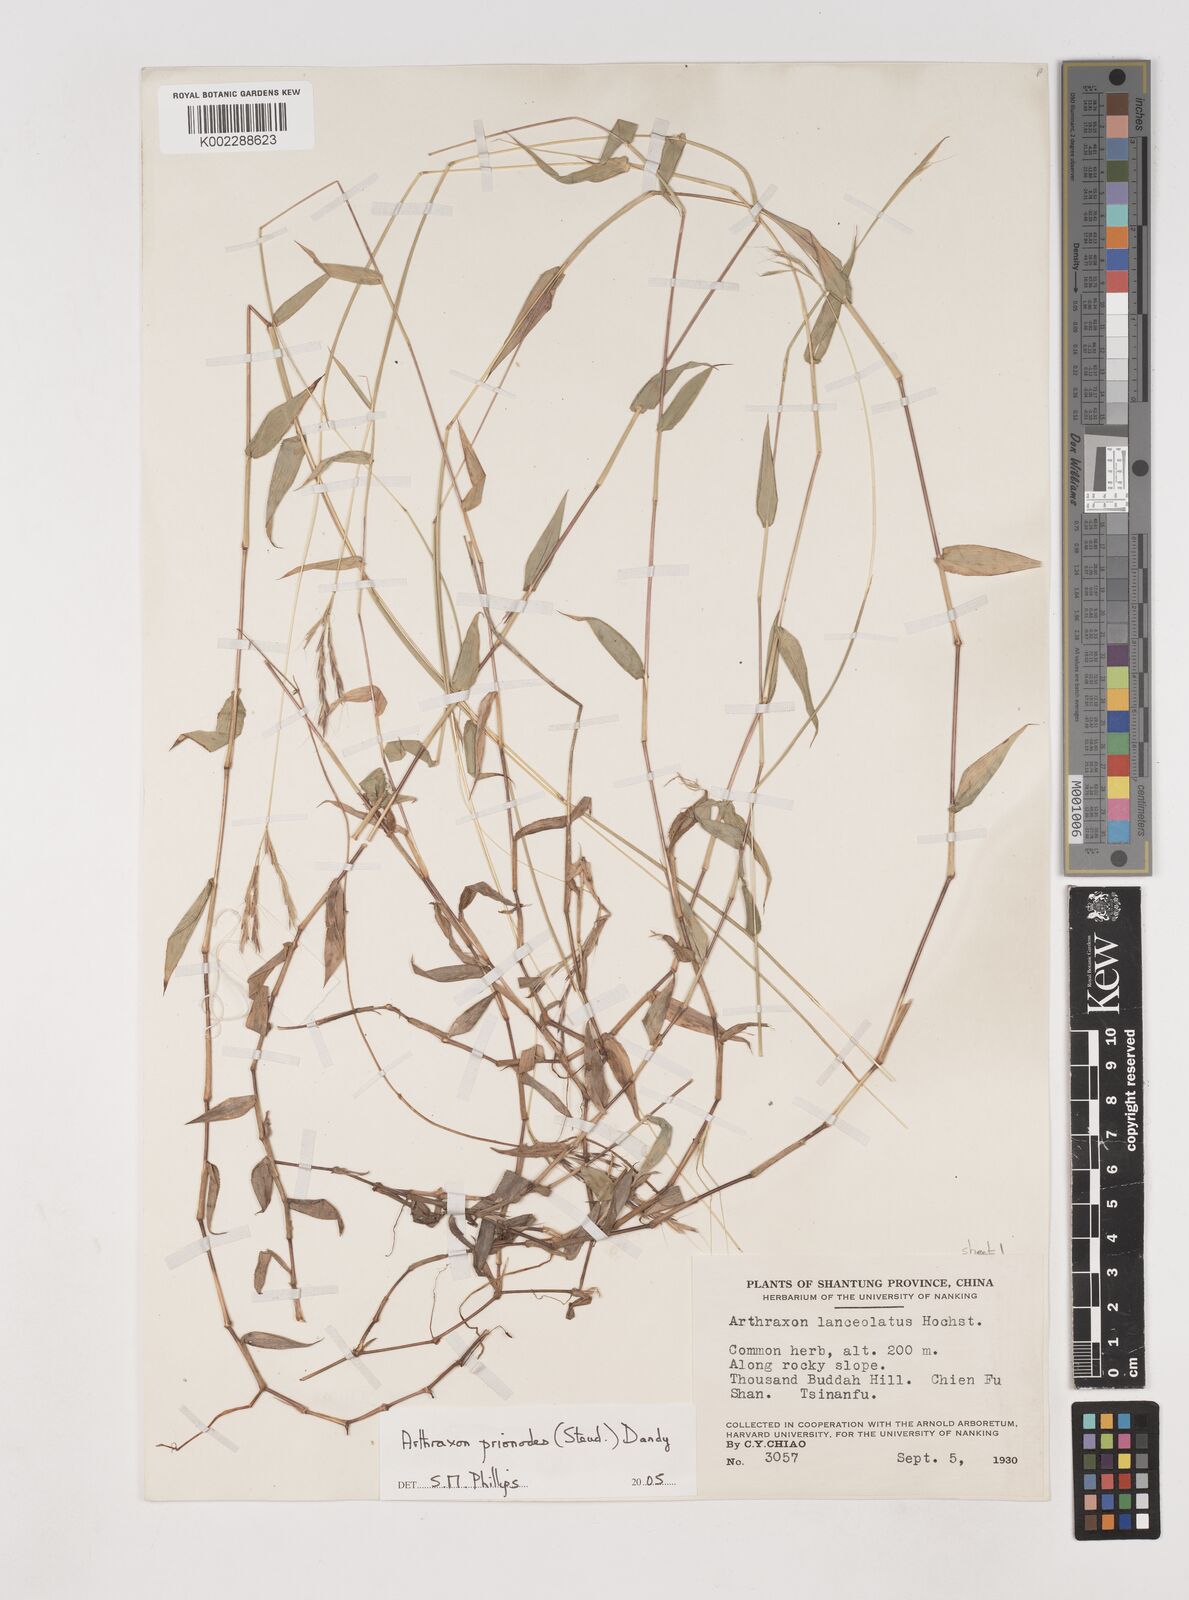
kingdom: Plantae
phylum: Tracheophyta
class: Liliopsida
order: Poales
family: Poaceae
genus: Arthraxon
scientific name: Arthraxon prionodes
